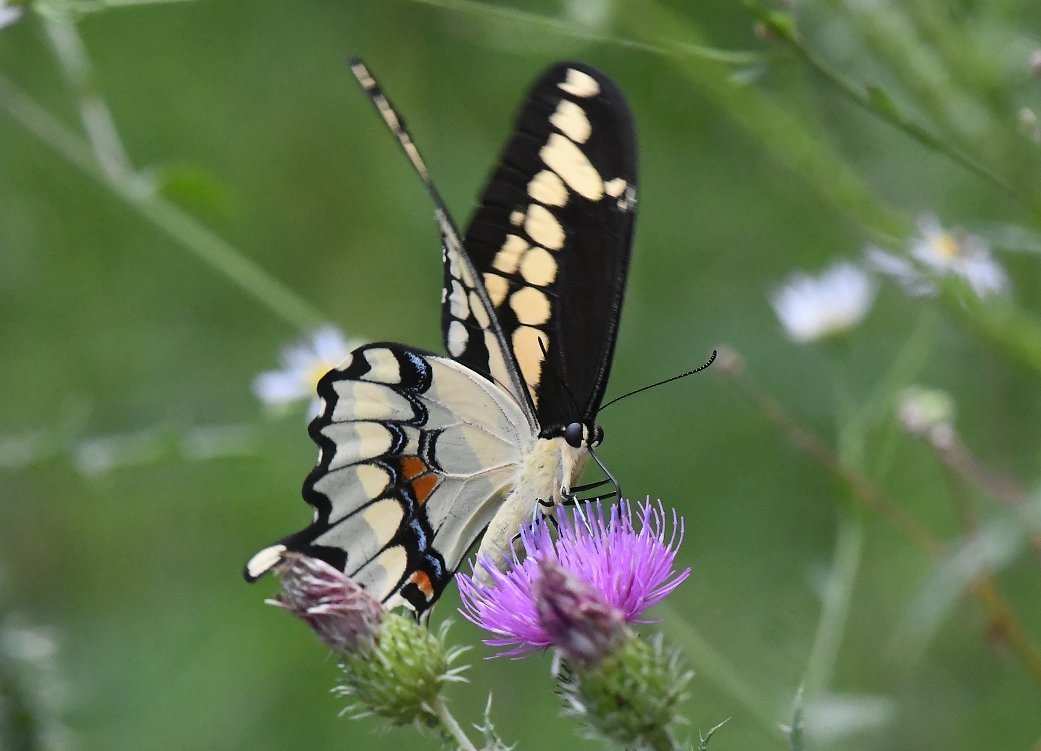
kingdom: Animalia
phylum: Arthropoda
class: Insecta
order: Lepidoptera
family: Papilionidae
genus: Papilio
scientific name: Papilio cresphontes
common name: Eastern Giant Swallowtail
